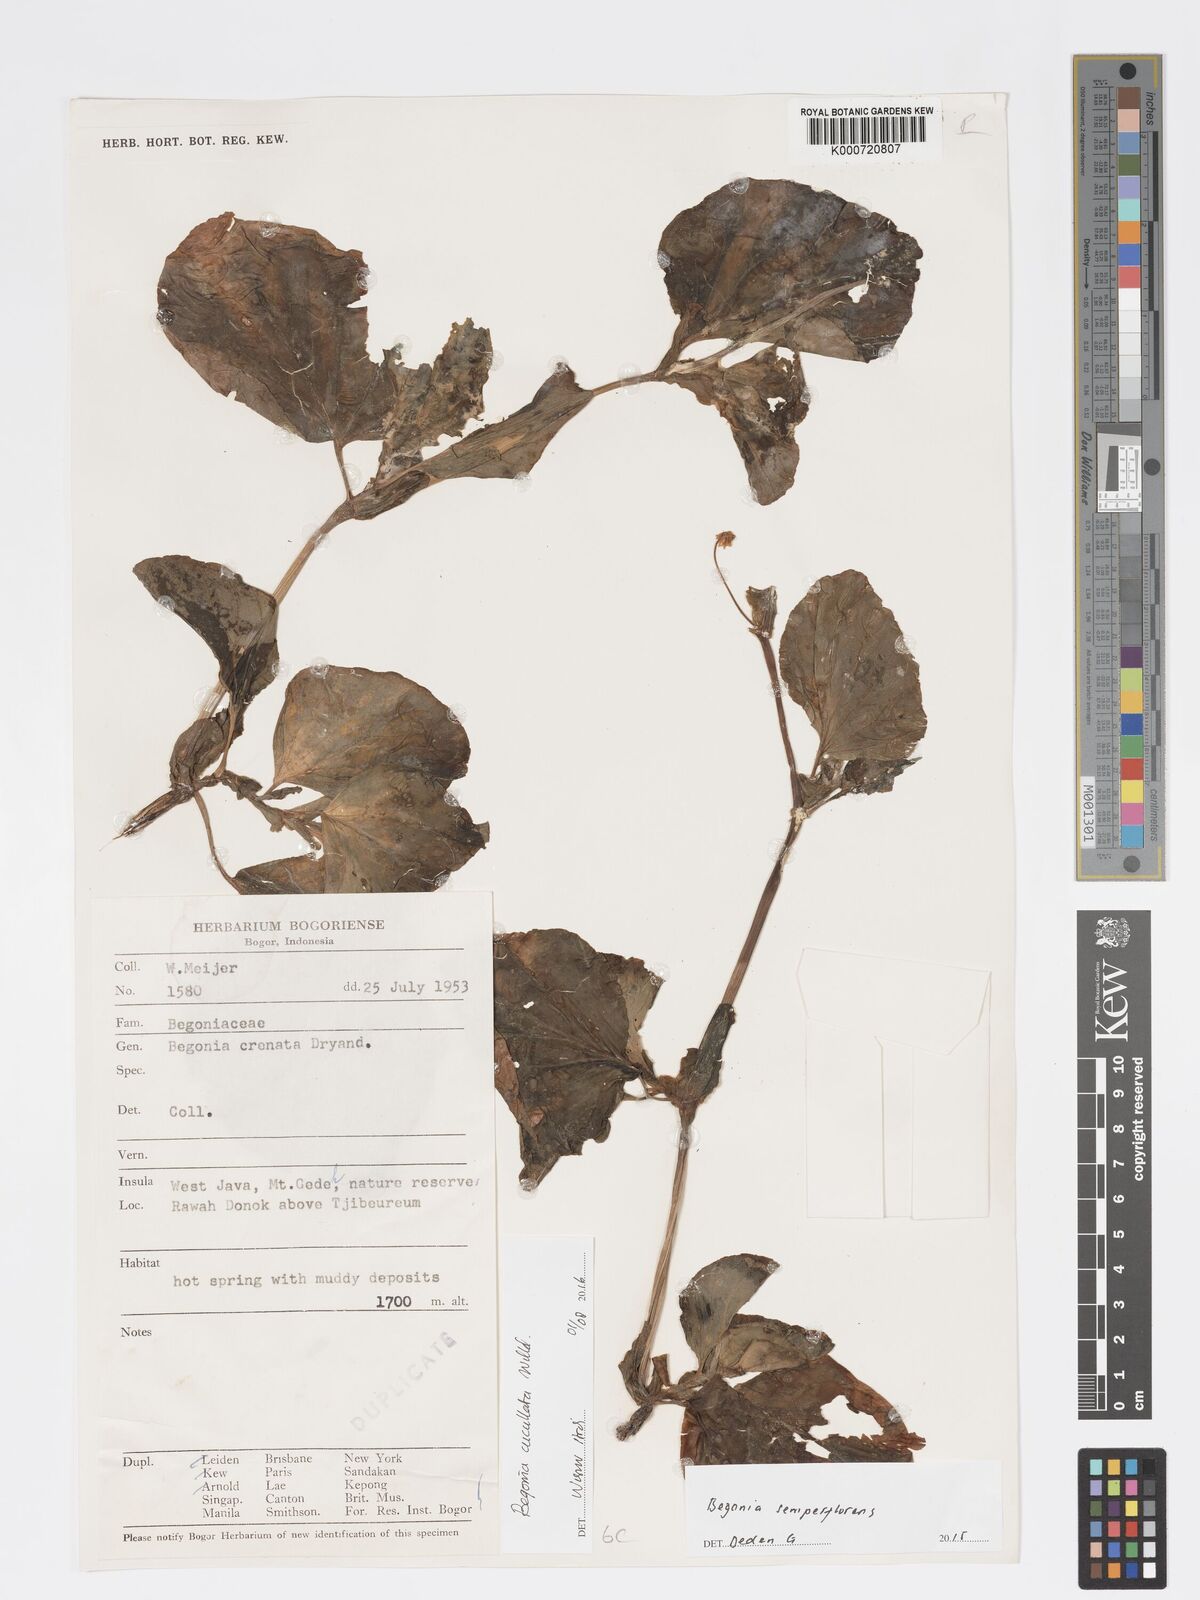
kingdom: Plantae
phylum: Tracheophyta
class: Magnoliopsida
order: Cucurbitales
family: Begoniaceae
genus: Begonia
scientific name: Begonia cucullata
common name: Clubbed begonia
